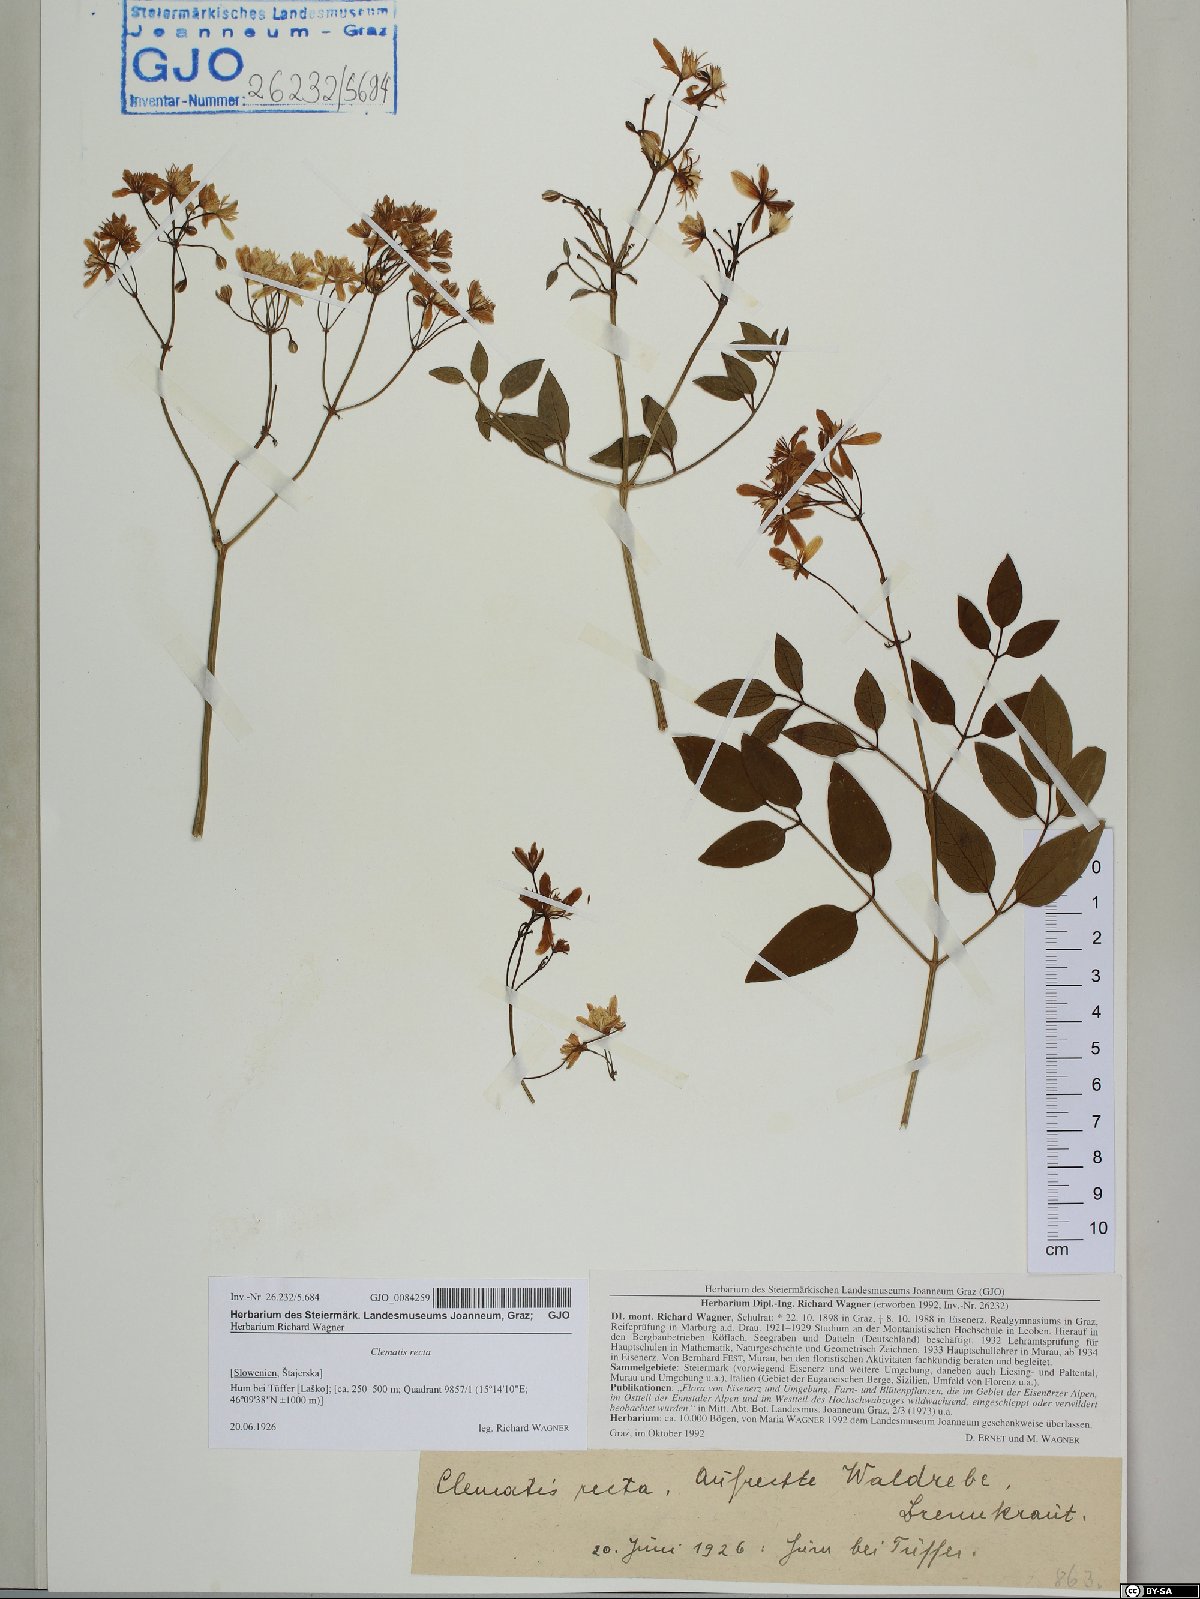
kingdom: Plantae
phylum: Tracheophyta
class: Magnoliopsida
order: Ranunculales
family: Ranunculaceae
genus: Clematis
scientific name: Clematis recta
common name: Ground clematis
